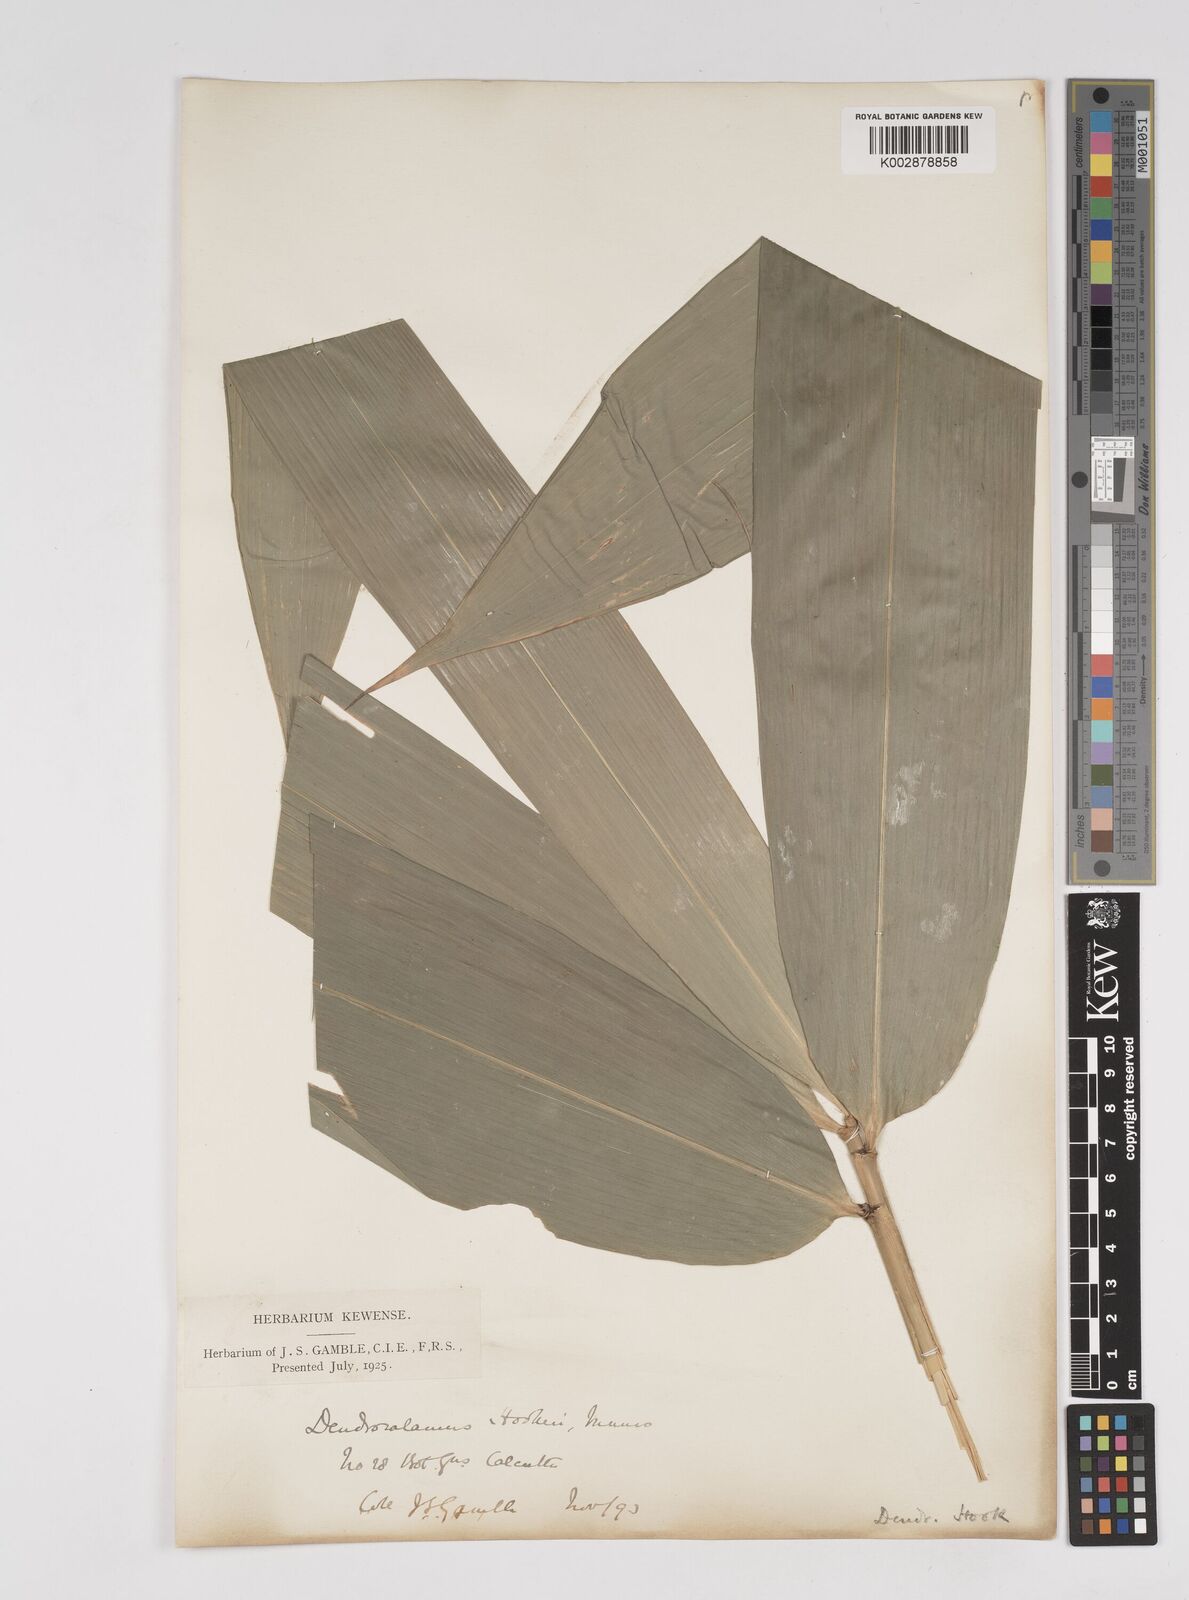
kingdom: Plantae
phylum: Tracheophyta
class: Liliopsida
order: Poales
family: Poaceae
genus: Dendrocalamus
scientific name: Dendrocalamus hookeri
